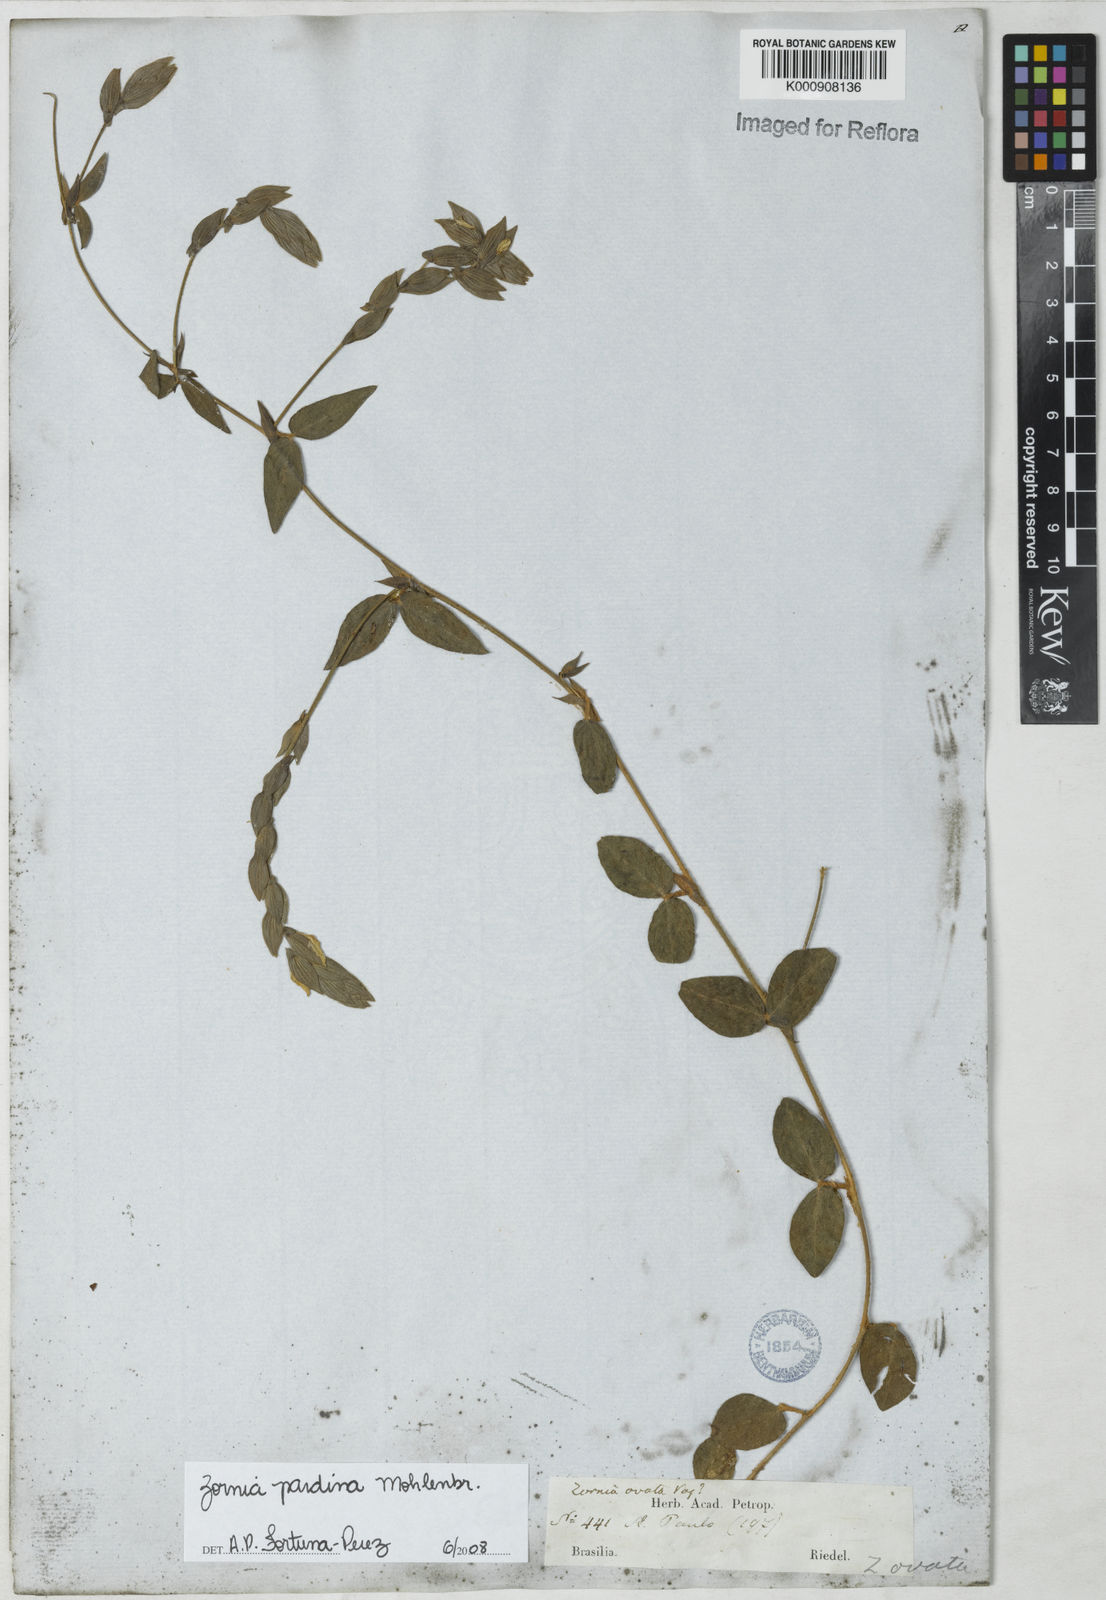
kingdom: Plantae
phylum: Tracheophyta
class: Magnoliopsida
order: Fabales
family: Fabaceae
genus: Zornia
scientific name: Zornia pardina
